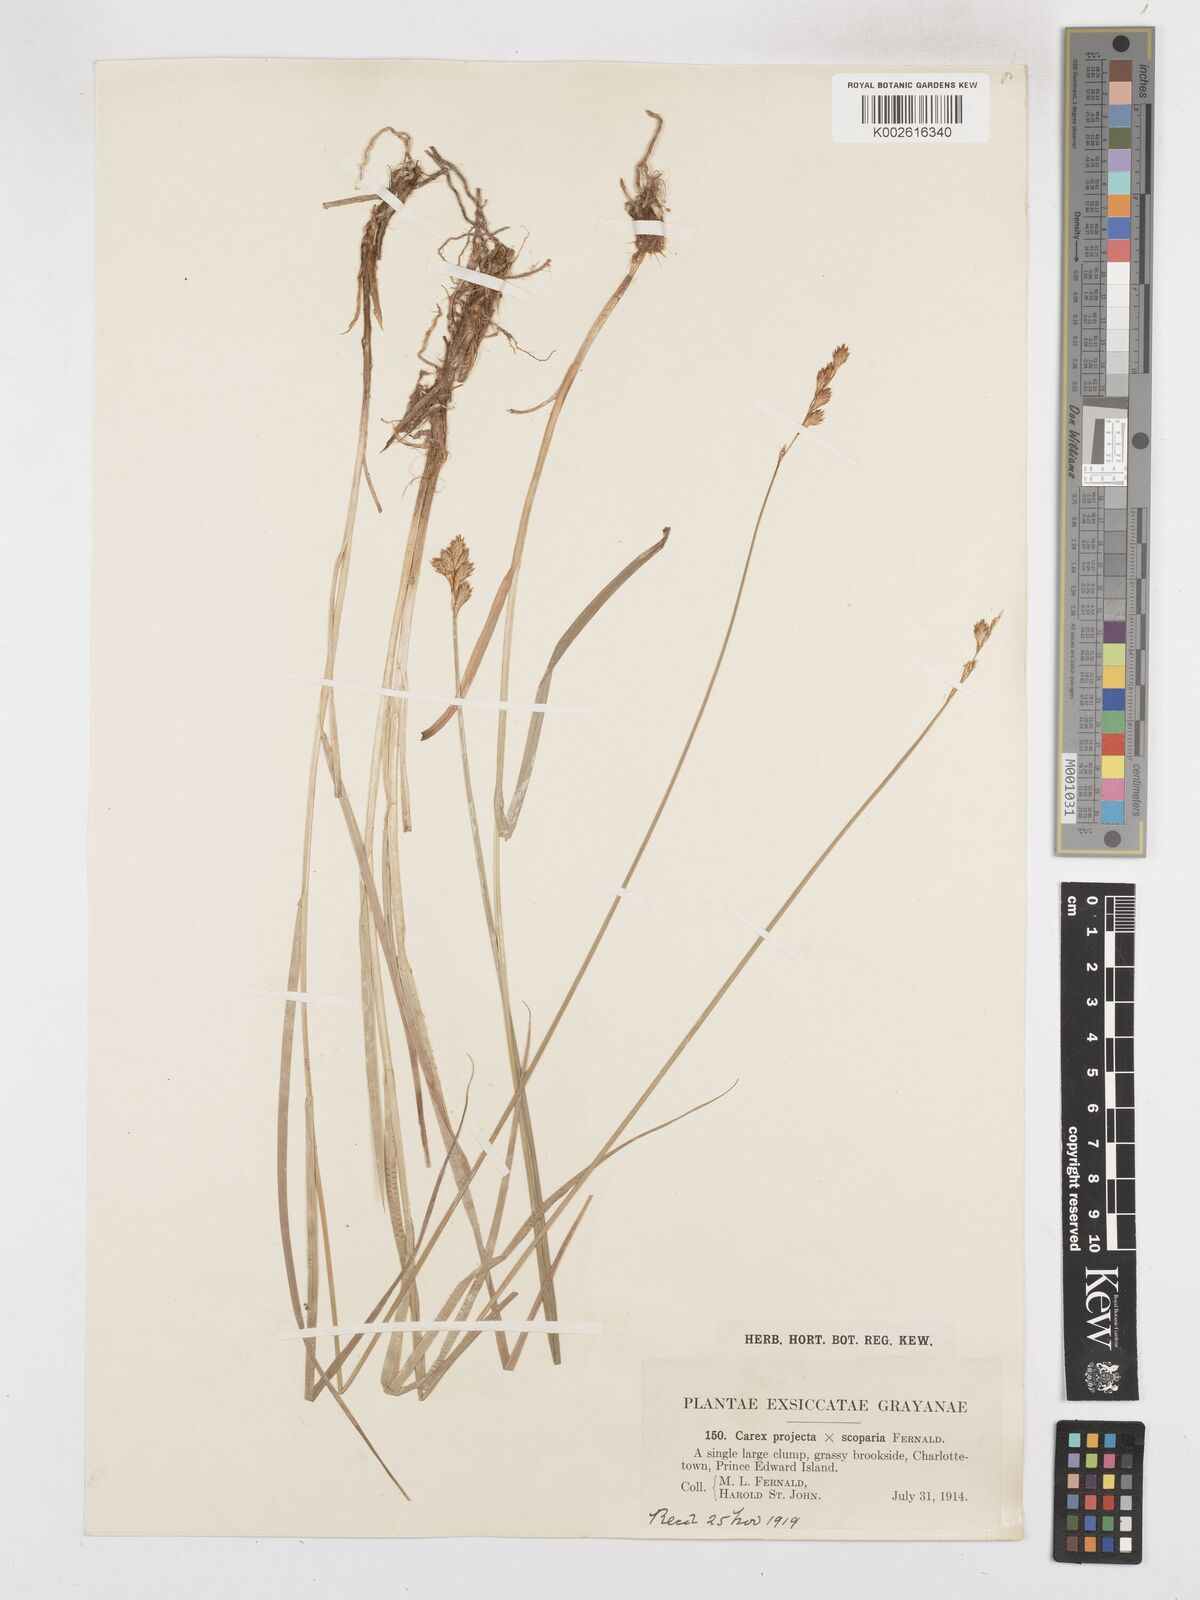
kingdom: Plantae
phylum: Tracheophyta
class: Liliopsida
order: Poales
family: Cyperaceae
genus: Carex
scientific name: Carex tribuloides
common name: Blunt broom sedge
